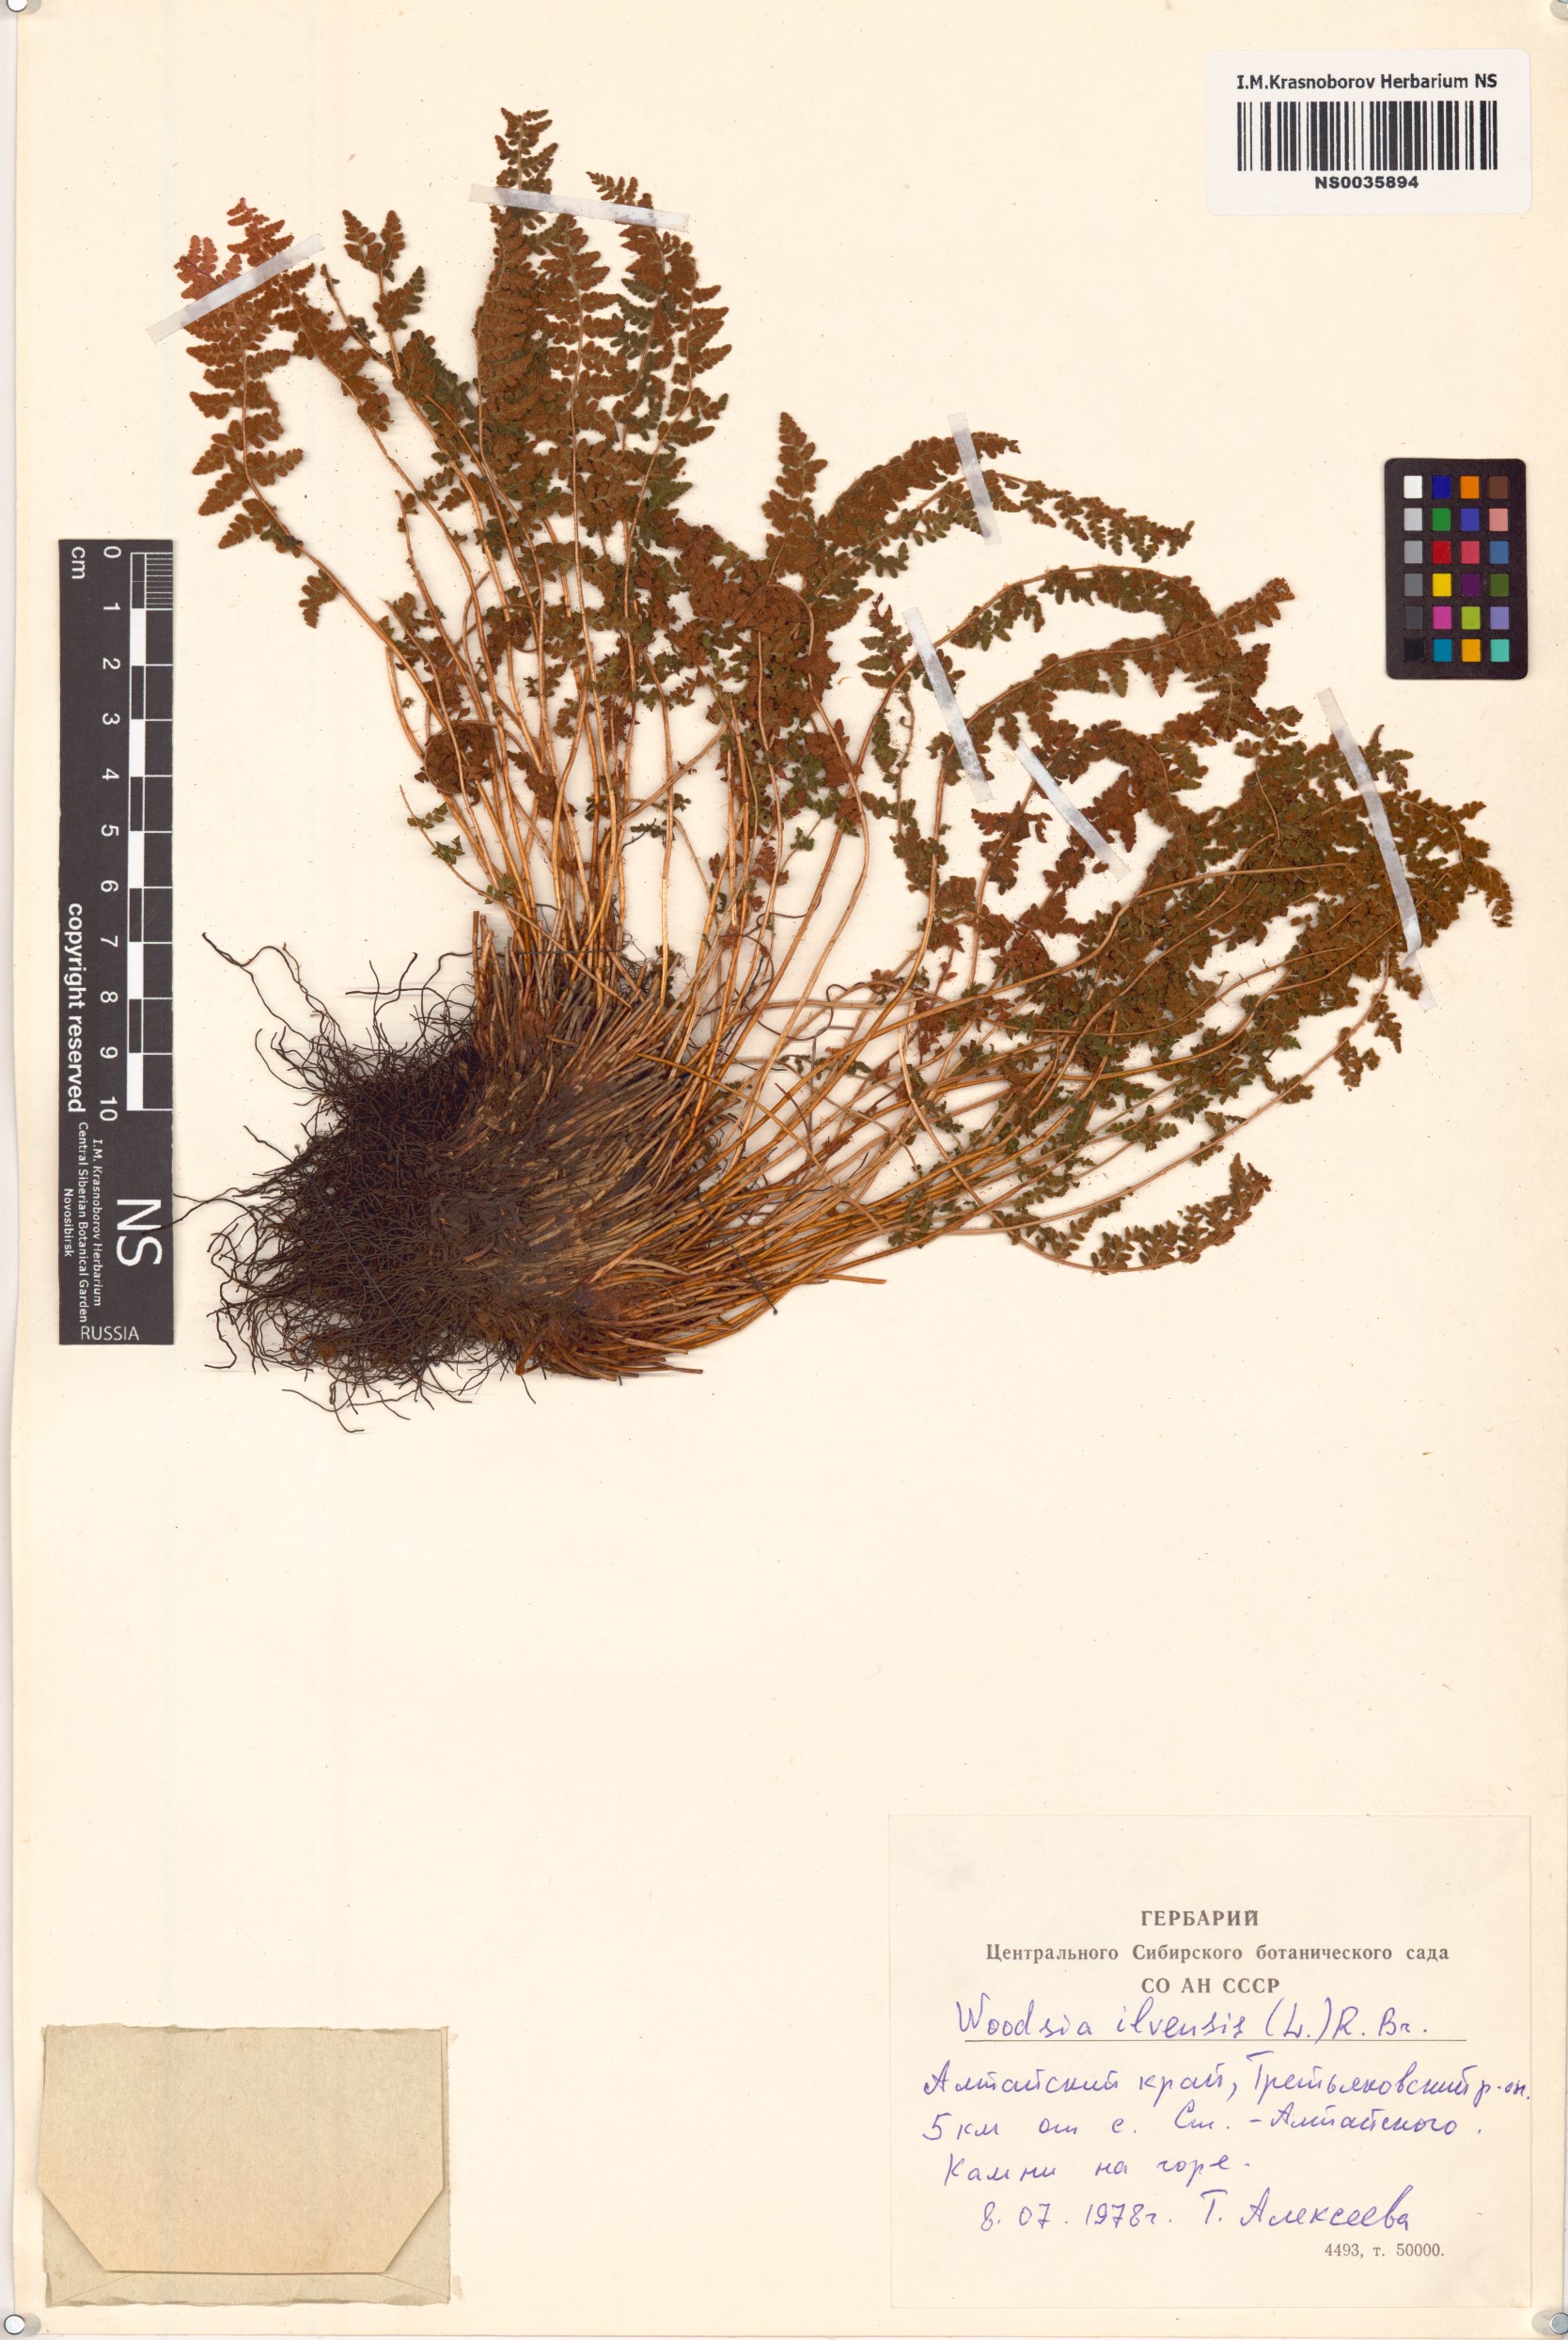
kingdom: Plantae
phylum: Tracheophyta
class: Polypodiopsida
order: Polypodiales
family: Woodsiaceae
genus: Woodsia
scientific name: Woodsia ilvensis
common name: Fragrant woodsia
